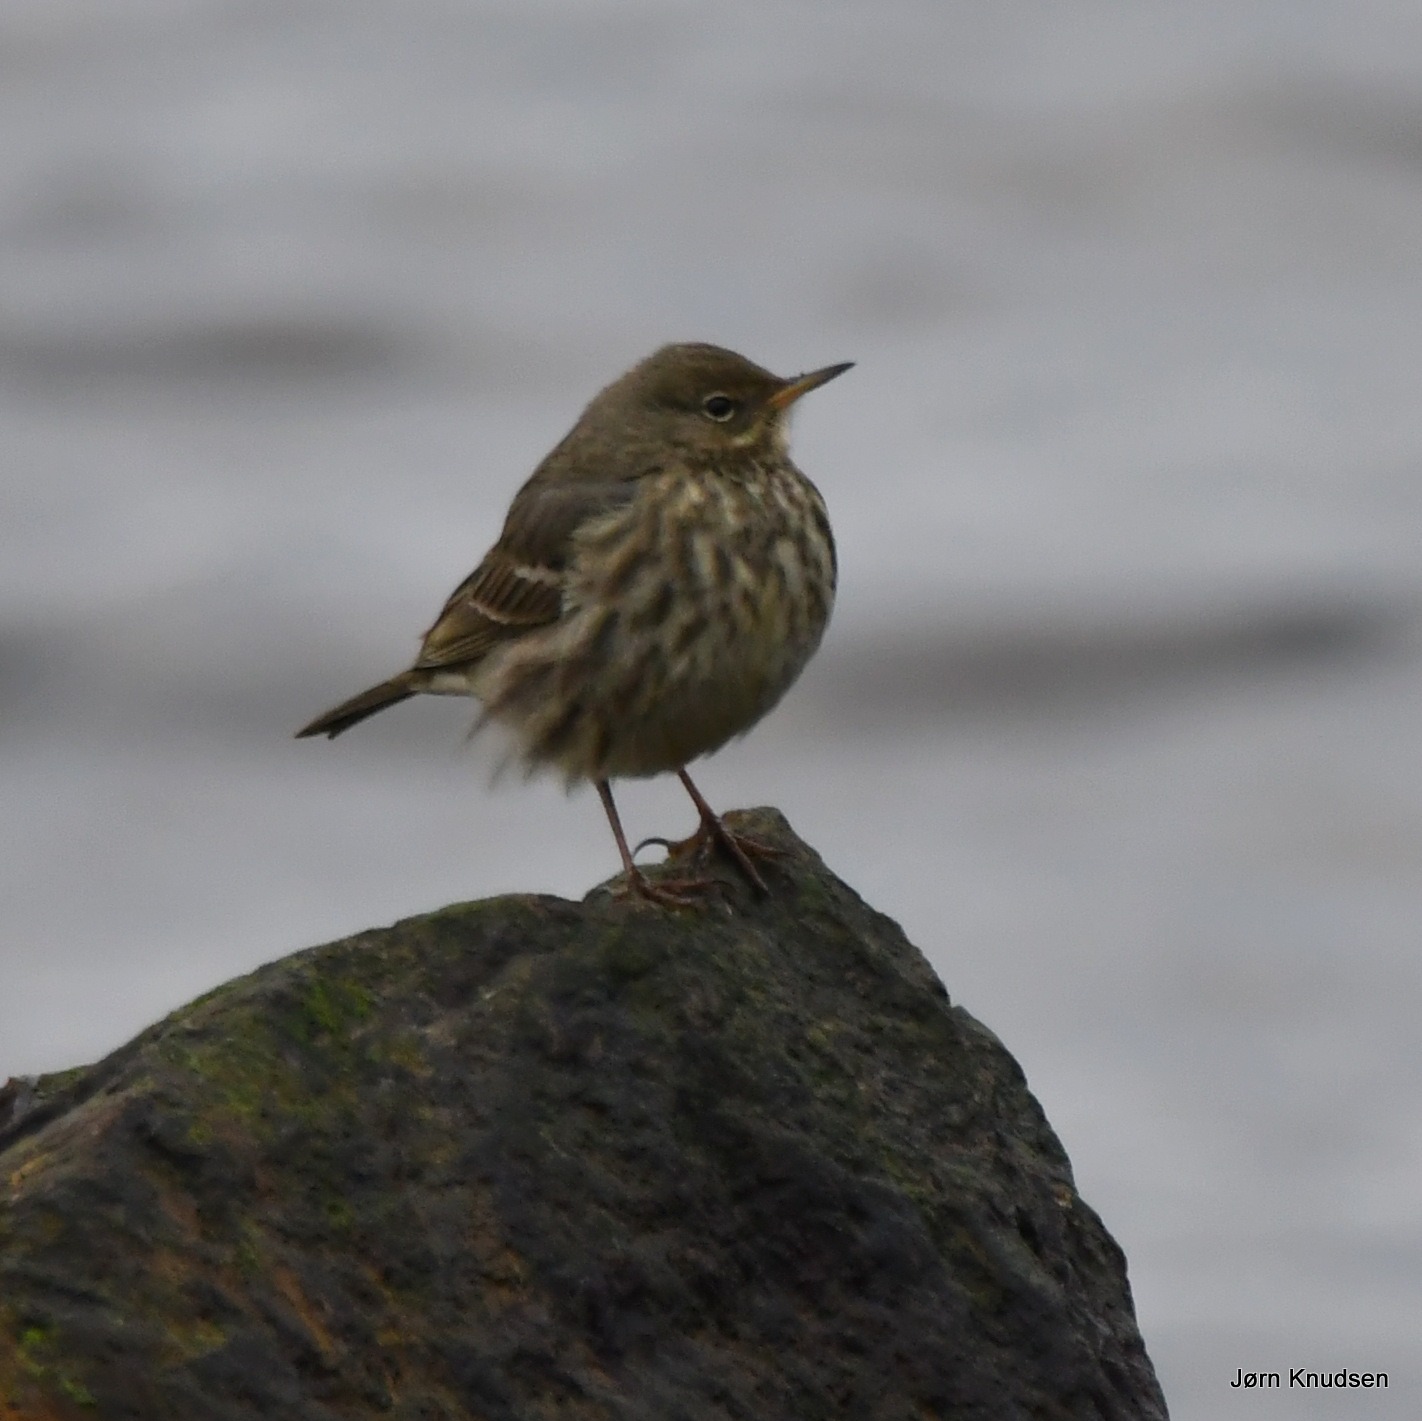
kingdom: Animalia
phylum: Chordata
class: Aves
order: Passeriformes
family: Motacillidae
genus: Anthus
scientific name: Anthus petrosus
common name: Skærpiber
